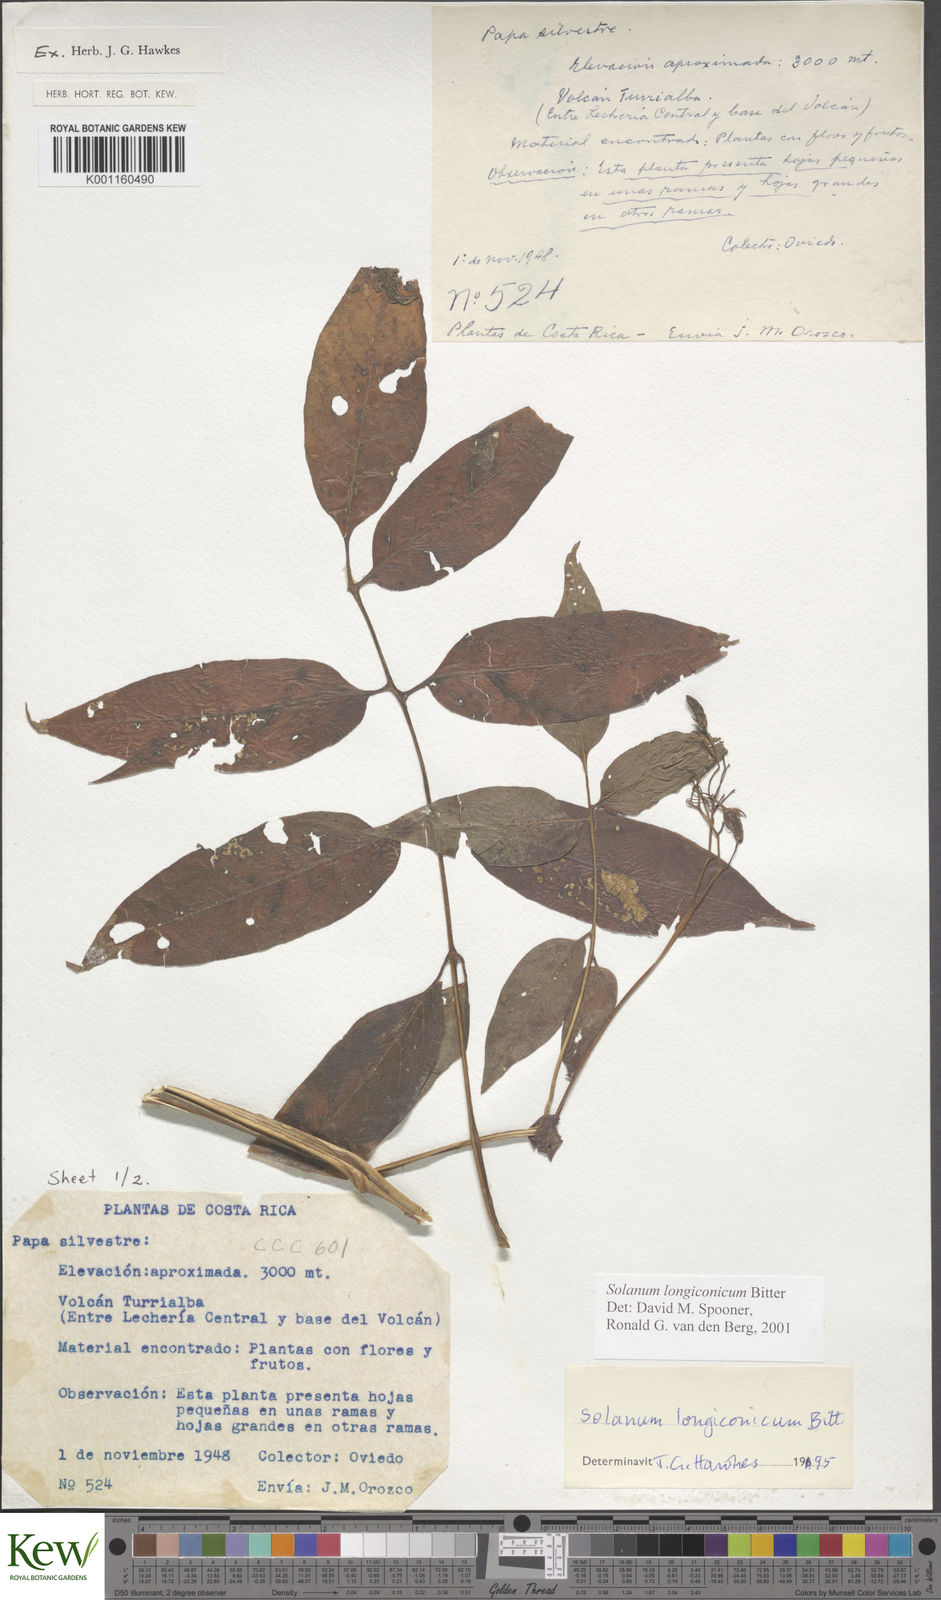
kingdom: Plantae
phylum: Tracheophyta
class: Magnoliopsida
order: Solanales
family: Solanaceae
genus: Solanum
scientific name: Solanum longiconicum
